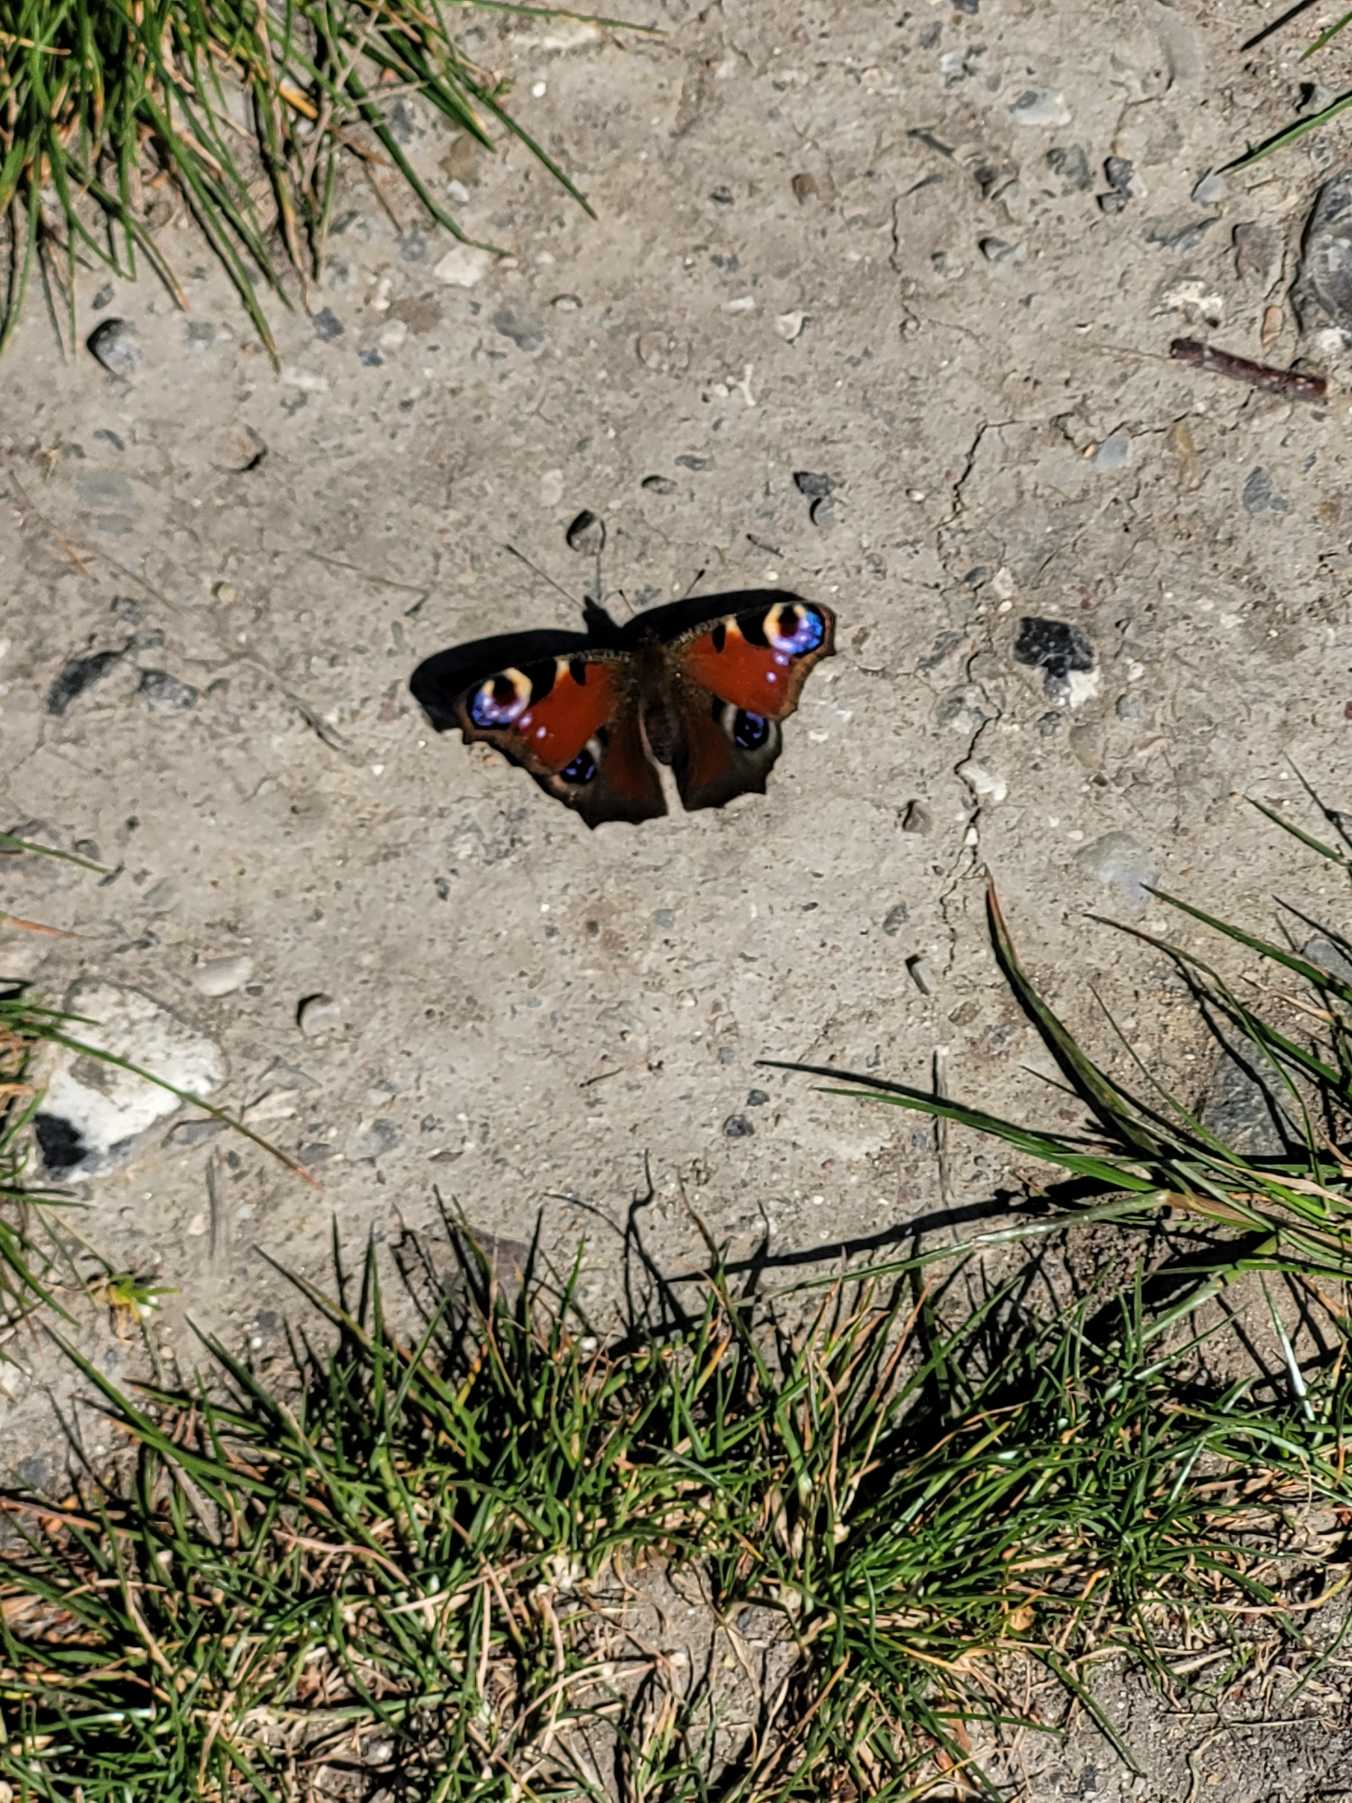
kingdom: Animalia
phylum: Arthropoda
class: Insecta
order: Lepidoptera
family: Nymphalidae
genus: Aglais
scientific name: Aglais io
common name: Dagpåfugleøje
